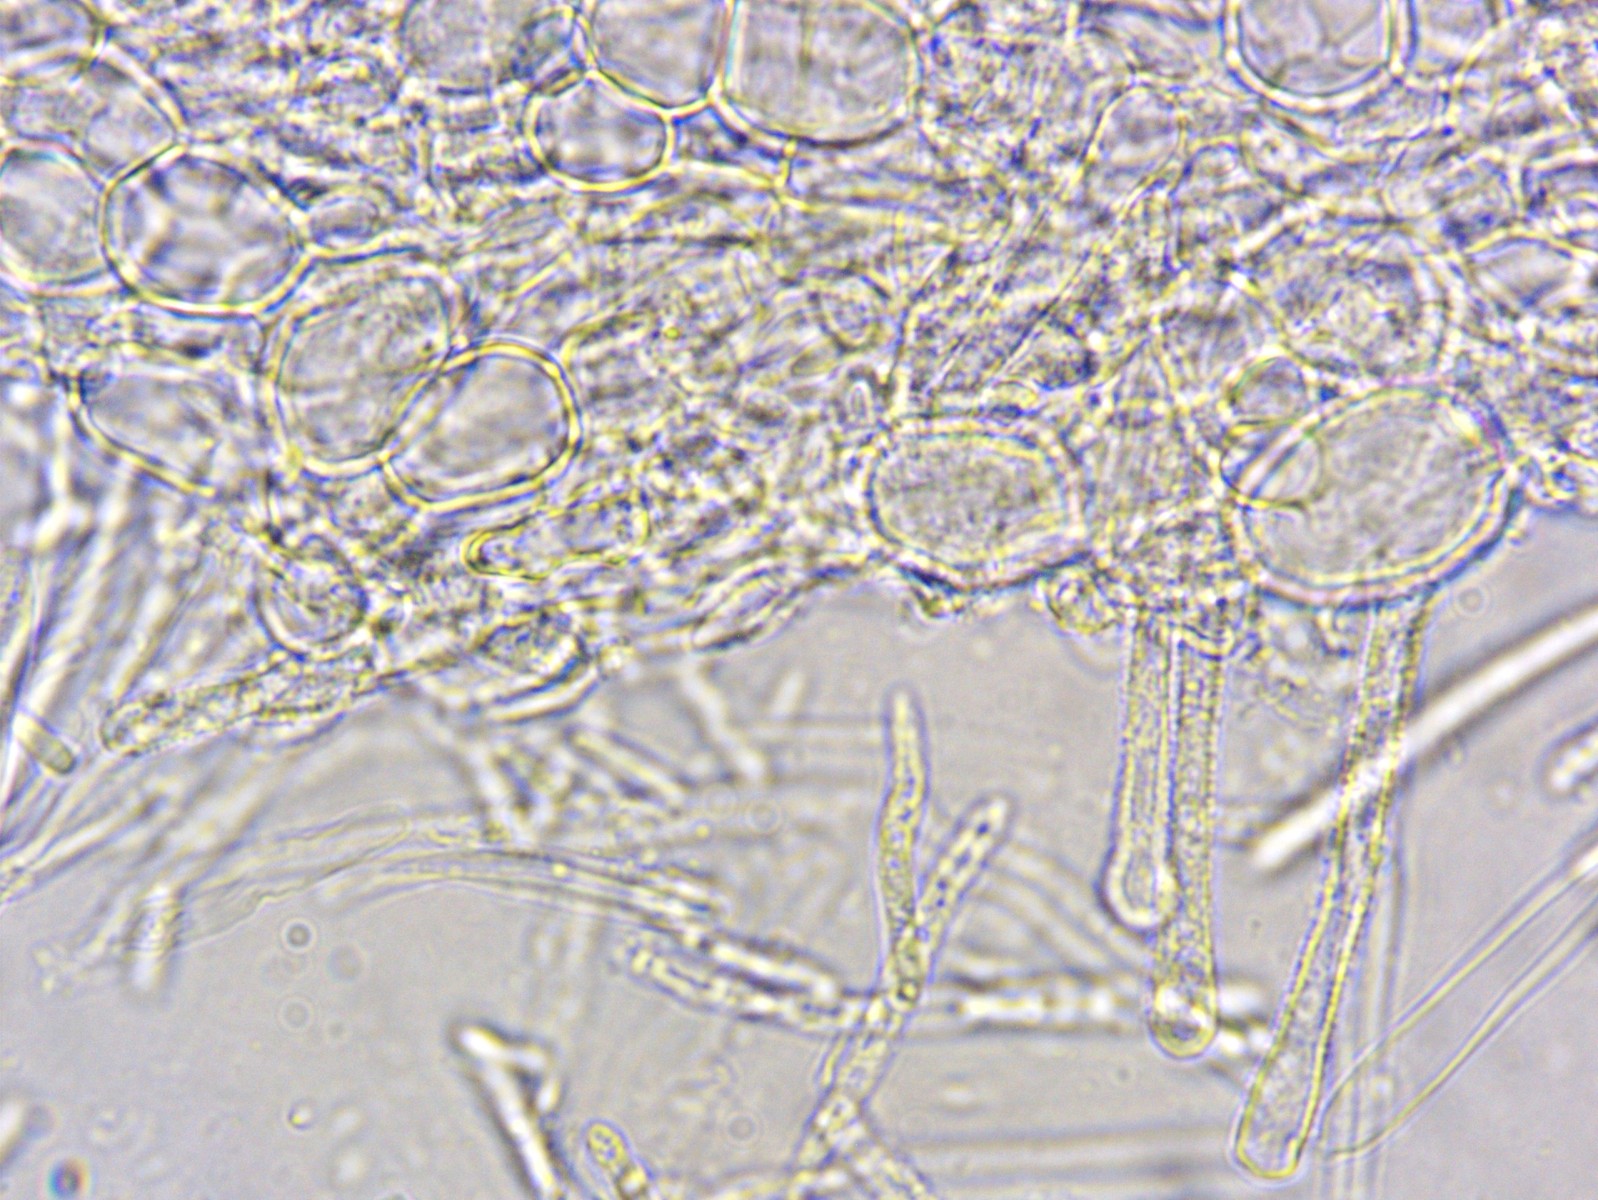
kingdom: Fungi
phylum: Ascomycota
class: Leotiomycetes
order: Helotiales
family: Lachnaceae
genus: Lachnum
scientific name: Lachnum
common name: frynseskive
